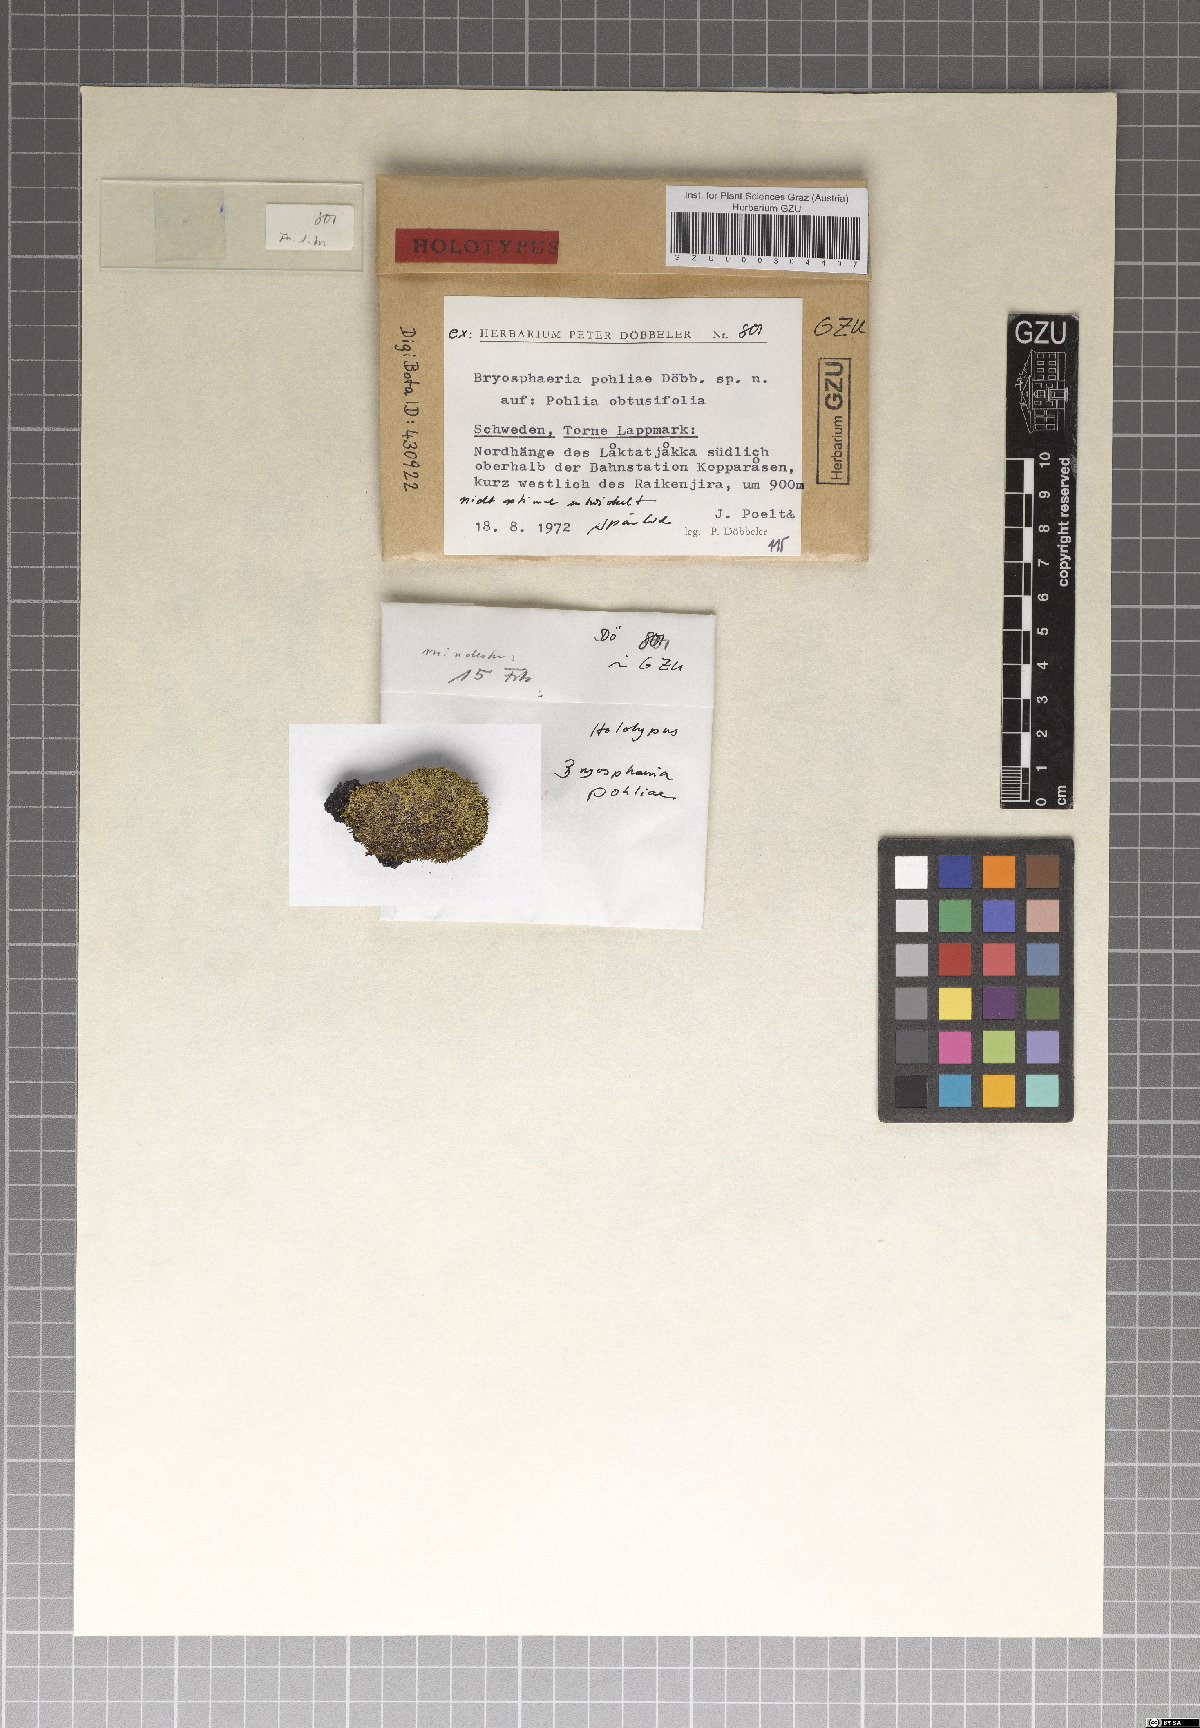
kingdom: Fungi
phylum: Ascomycota
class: Dothideomycetes
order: Dothideales
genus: Bryosphaeria
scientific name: Bryosphaeria pohliae
